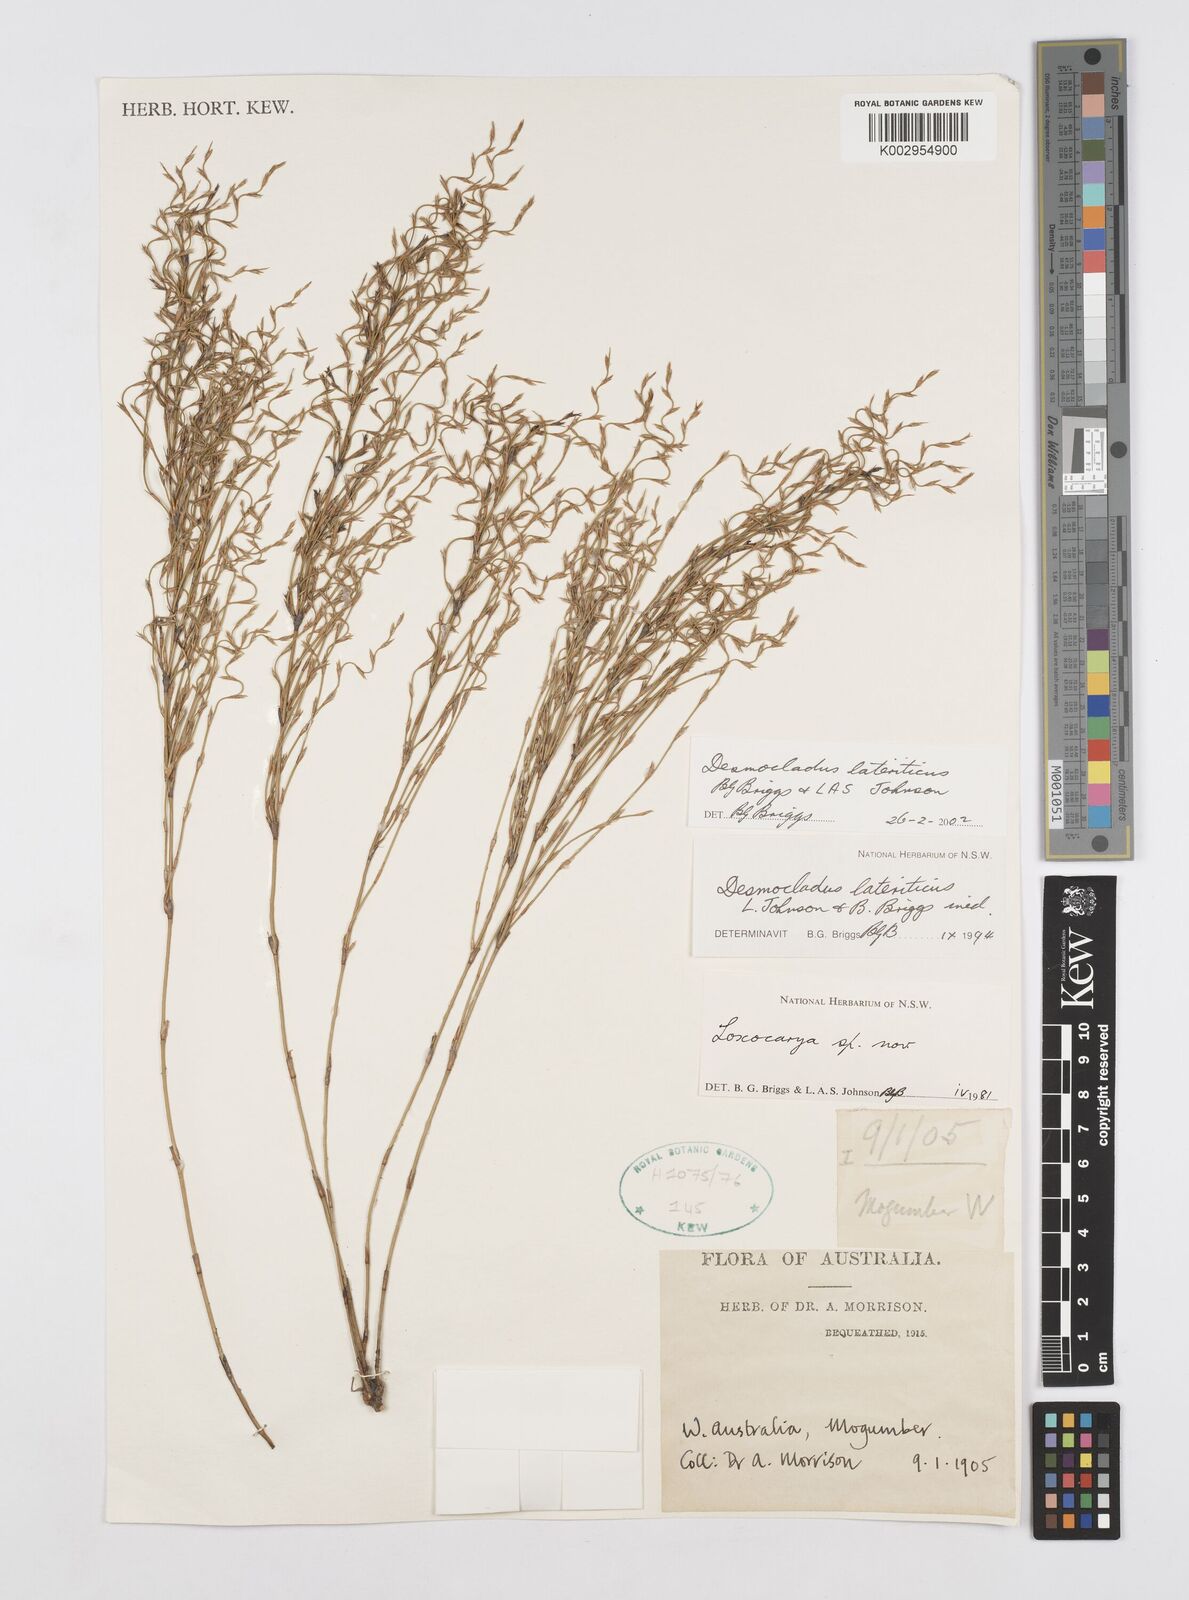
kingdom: Plantae
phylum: Tracheophyta
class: Liliopsida
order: Poales
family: Restionaceae
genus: Desmocladus
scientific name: Desmocladus lateriticus
